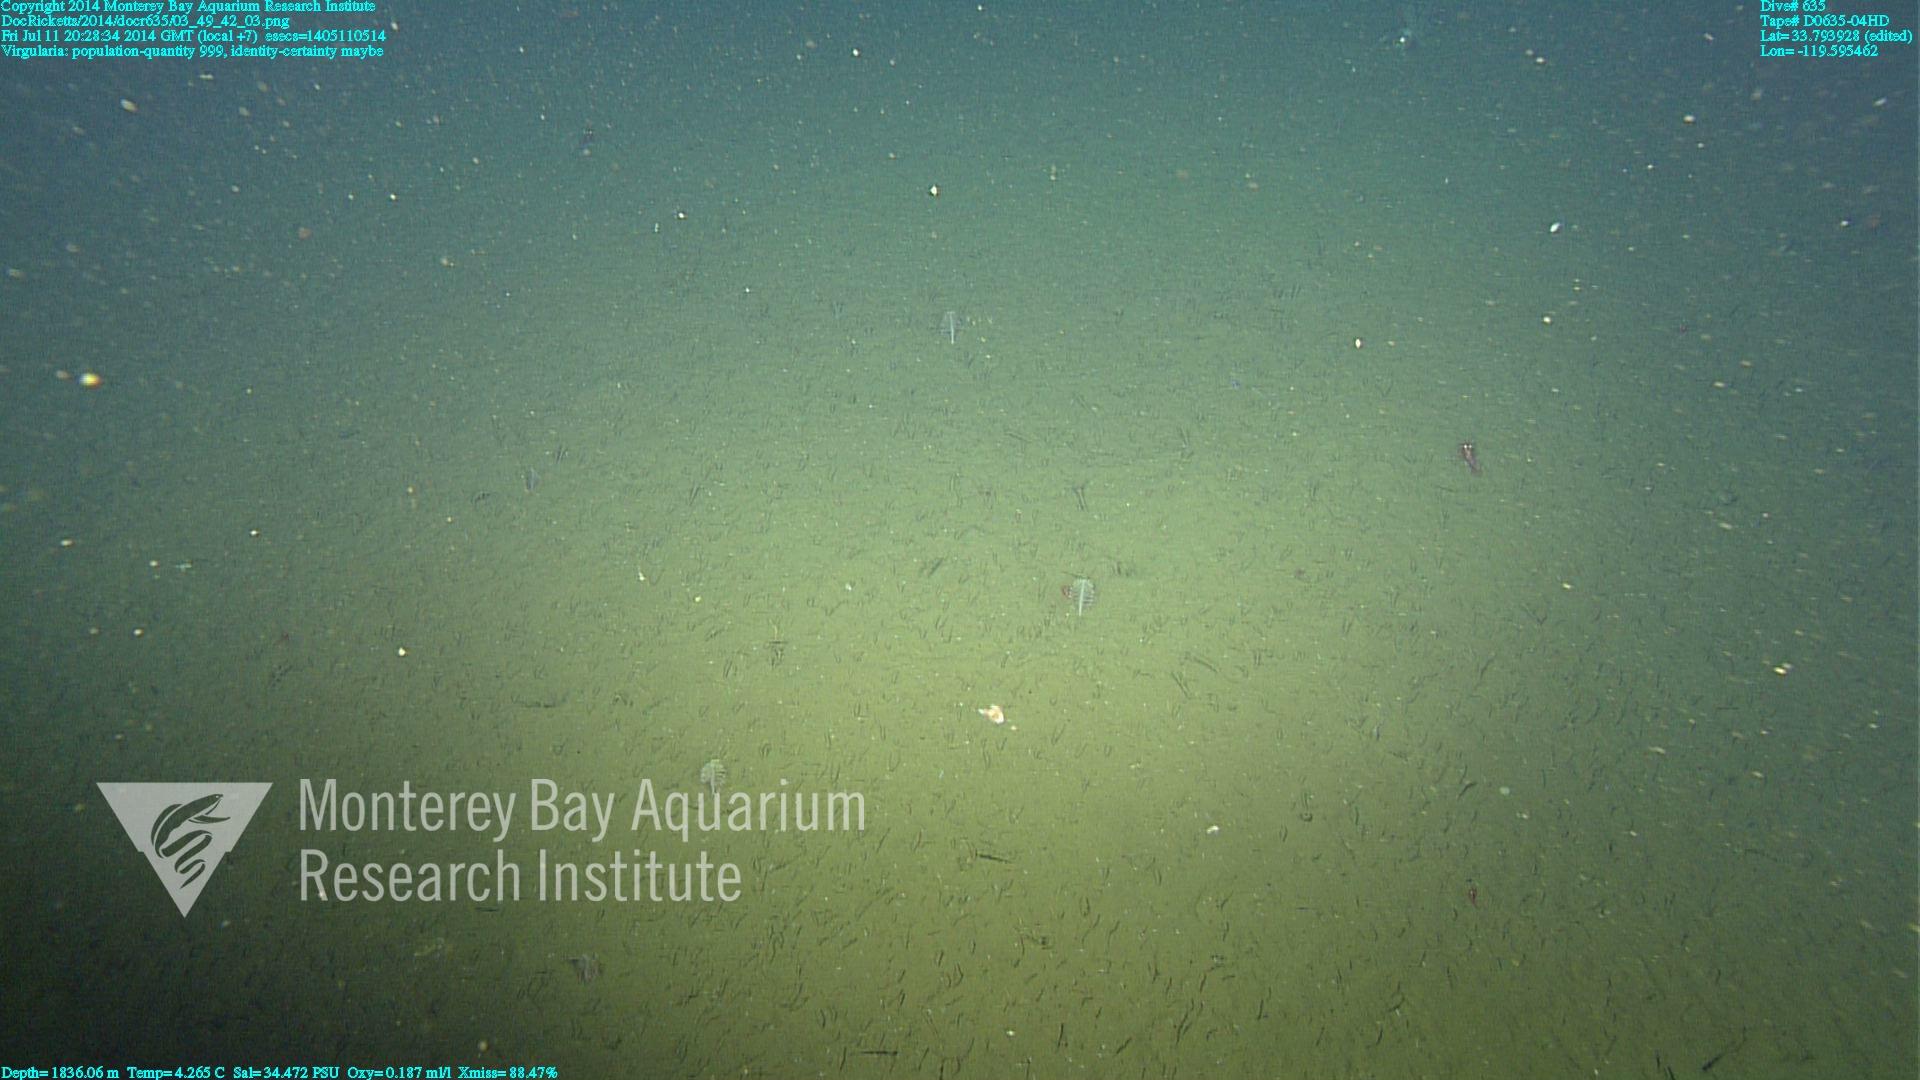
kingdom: Animalia
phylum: Cnidaria
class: Anthozoa
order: Scleralcyonacea
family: Virgulariidae
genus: Virgularia
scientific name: Virgularia
